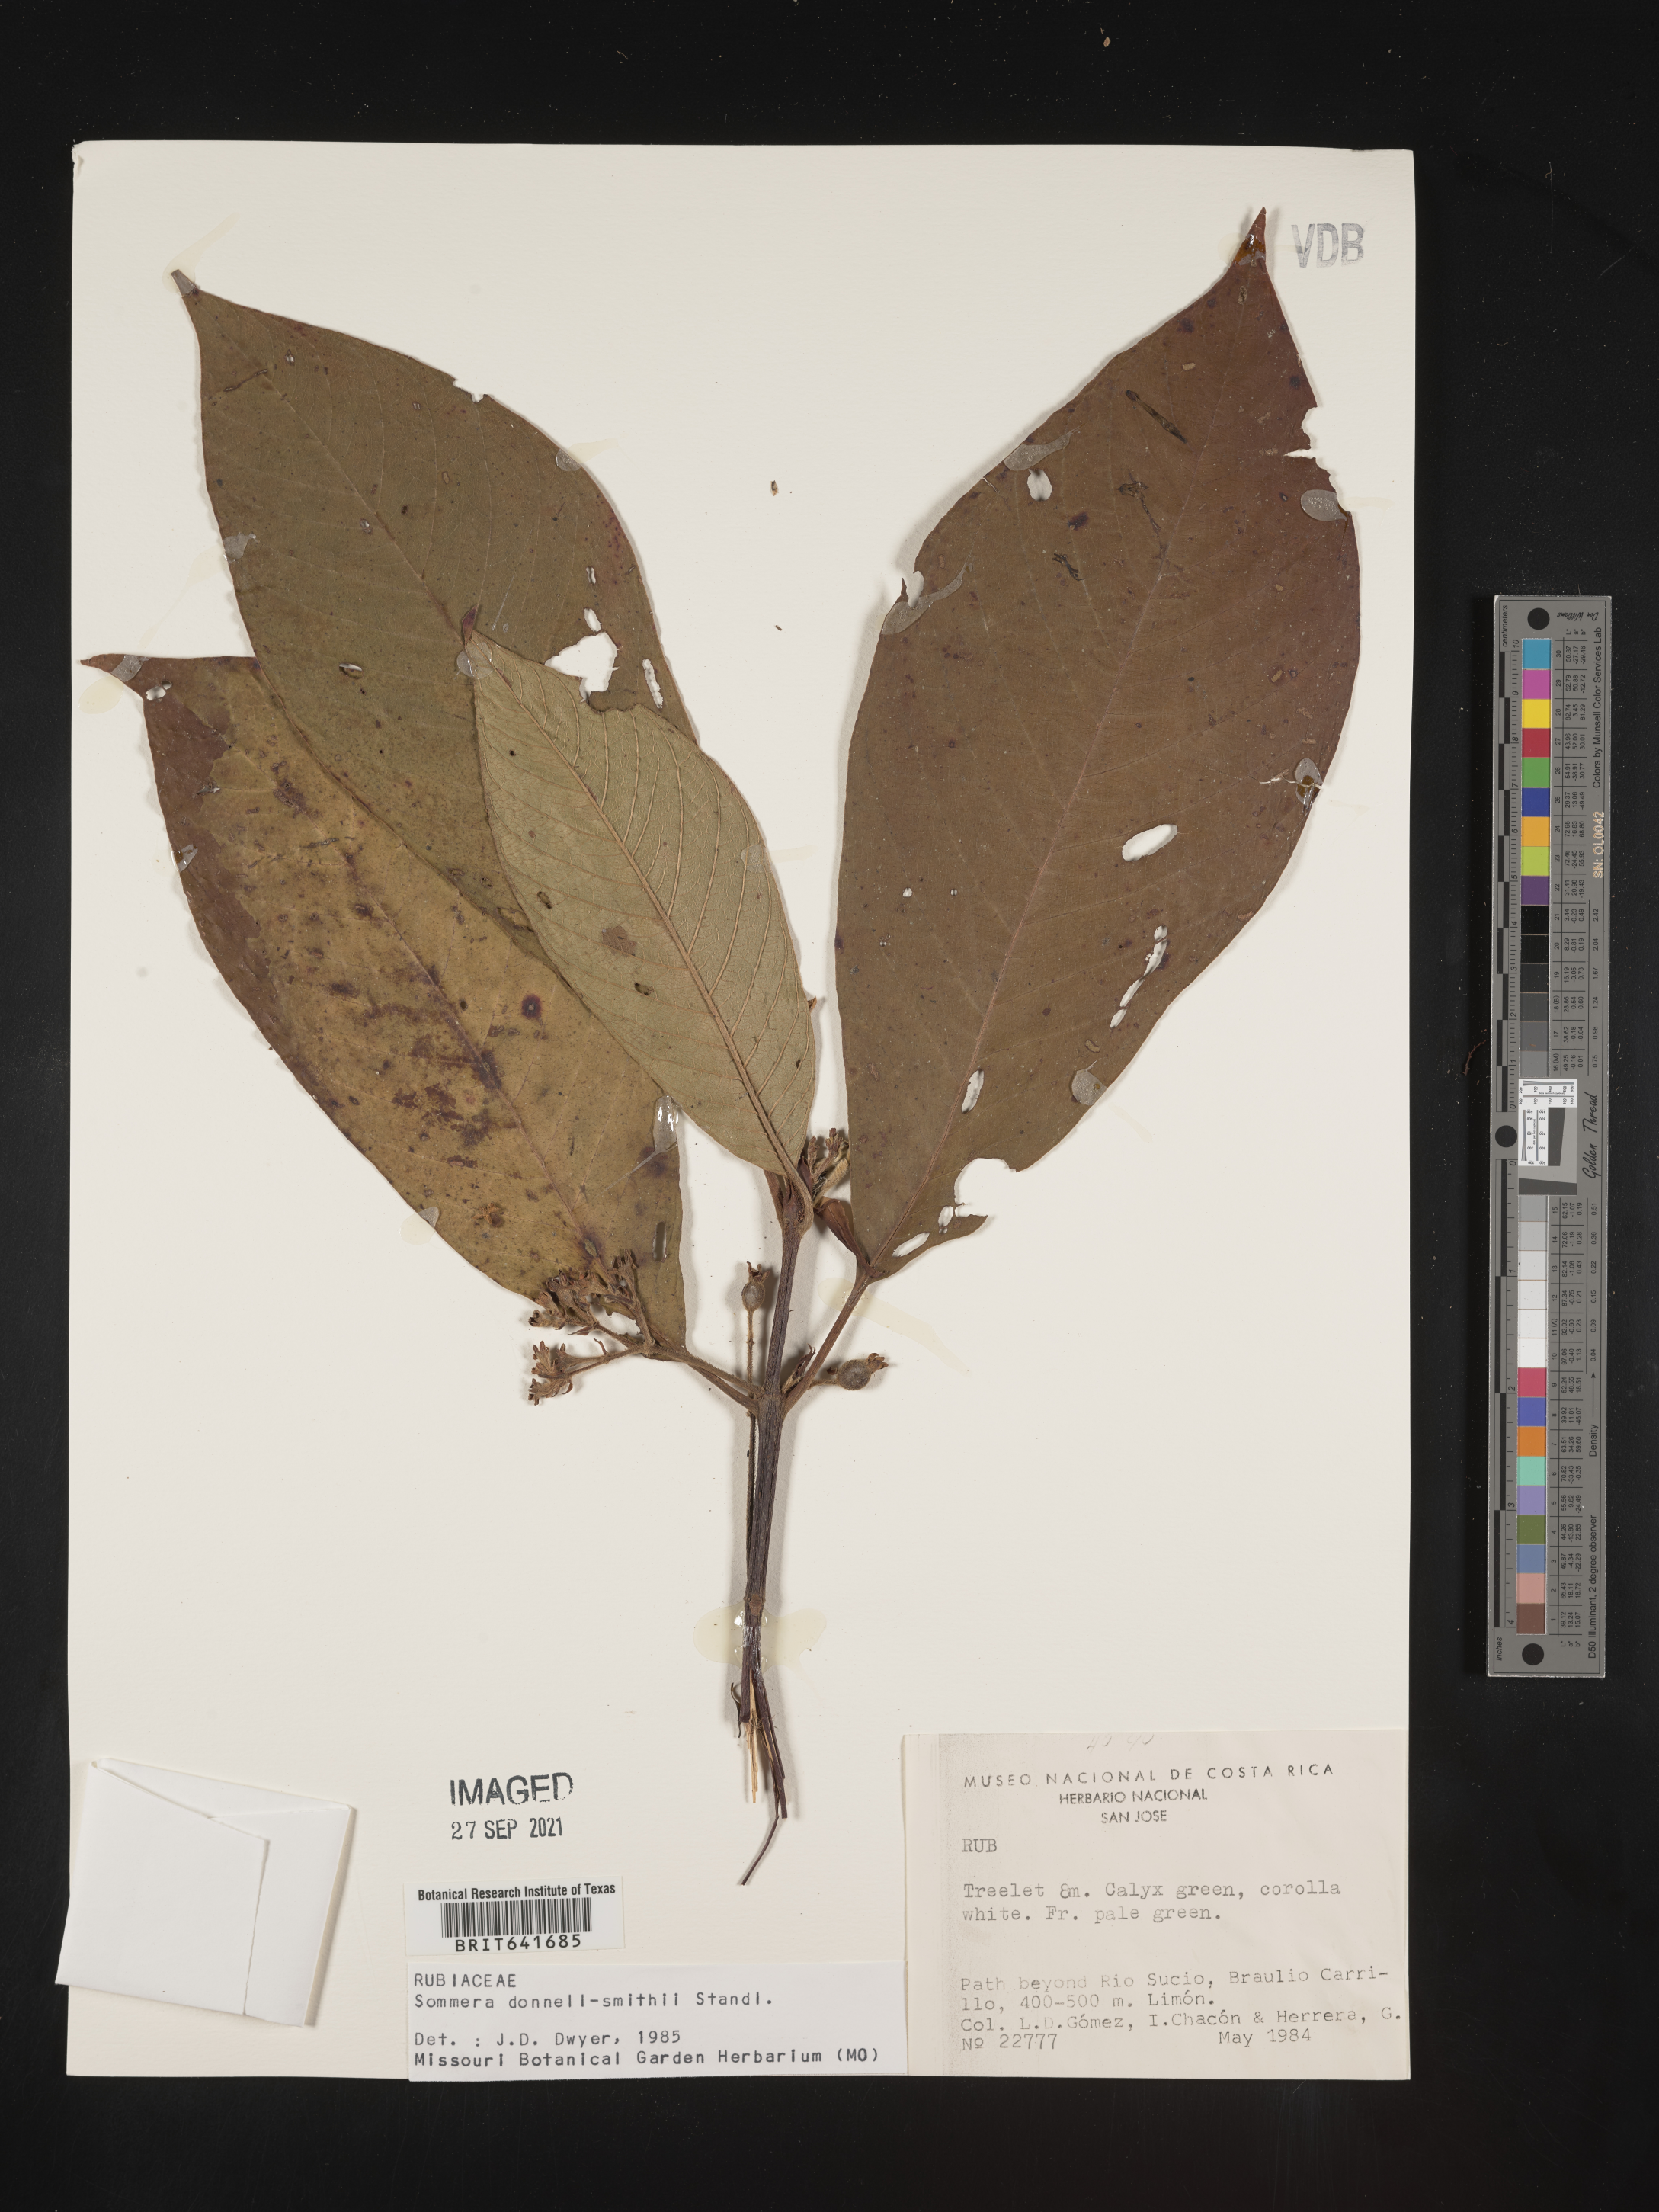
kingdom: Plantae
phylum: Tracheophyta
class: Magnoliopsida
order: Gentianales
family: Rubiaceae
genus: Sommera
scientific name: Sommera
